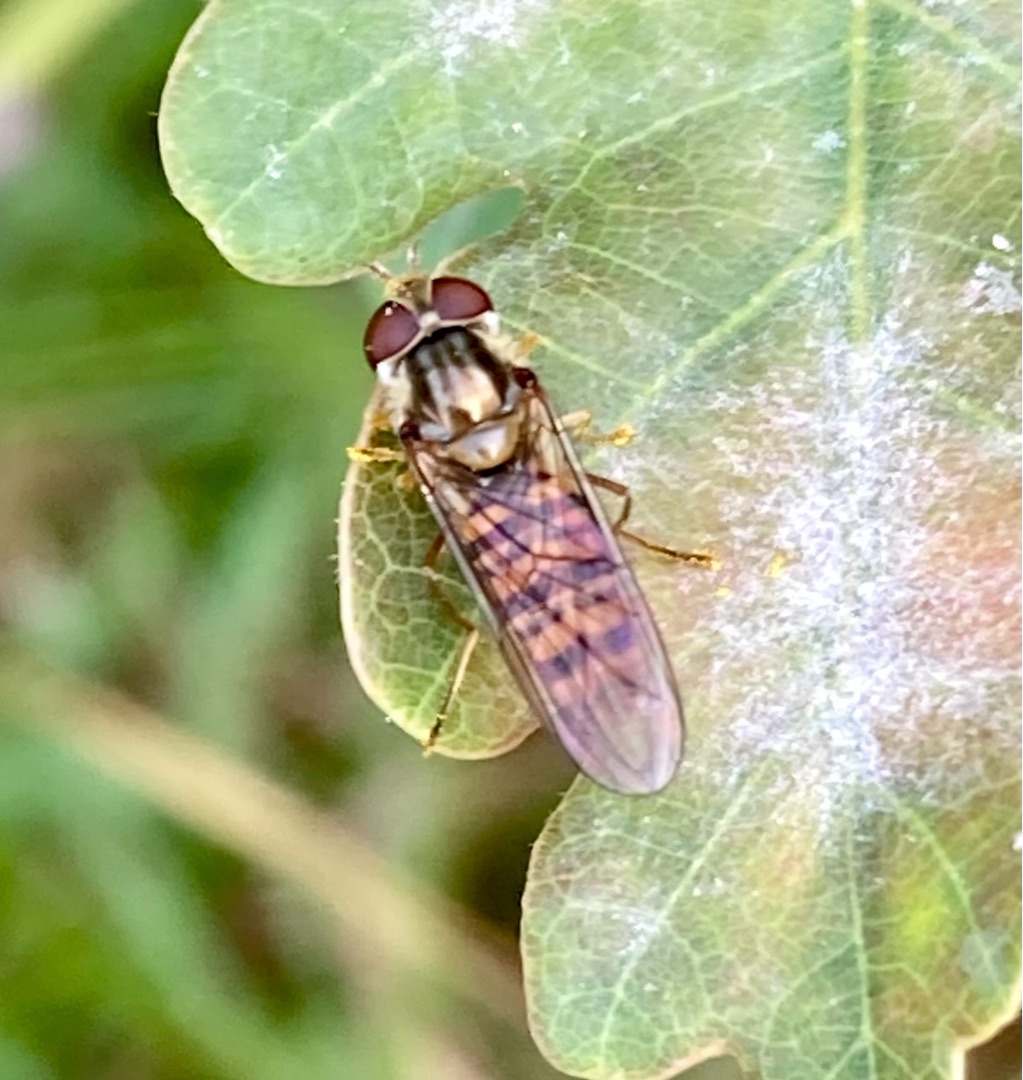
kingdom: Animalia
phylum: Arthropoda
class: Insecta
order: Diptera
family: Syrphidae
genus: Episyrphus
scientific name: Episyrphus balteatus
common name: Dobbeltbåndet svirreflue
